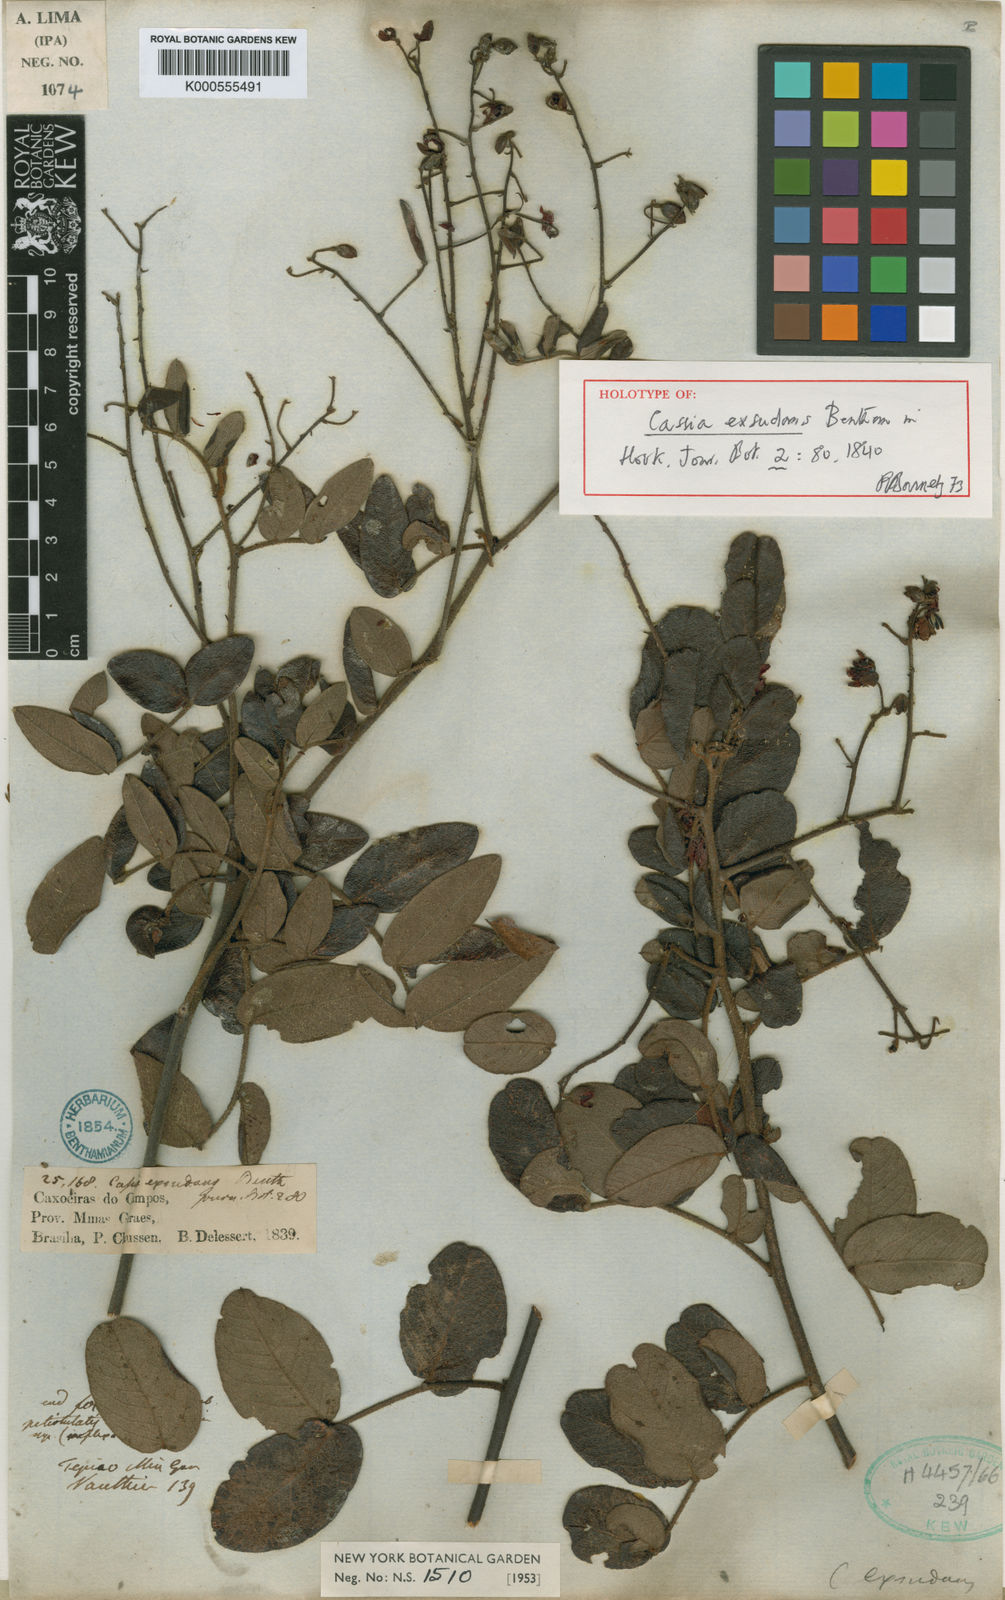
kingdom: Plantae
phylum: Tracheophyta
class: Magnoliopsida
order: Fabales
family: Fabaceae
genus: Chamaecrista
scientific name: Chamaecrista exsudans
